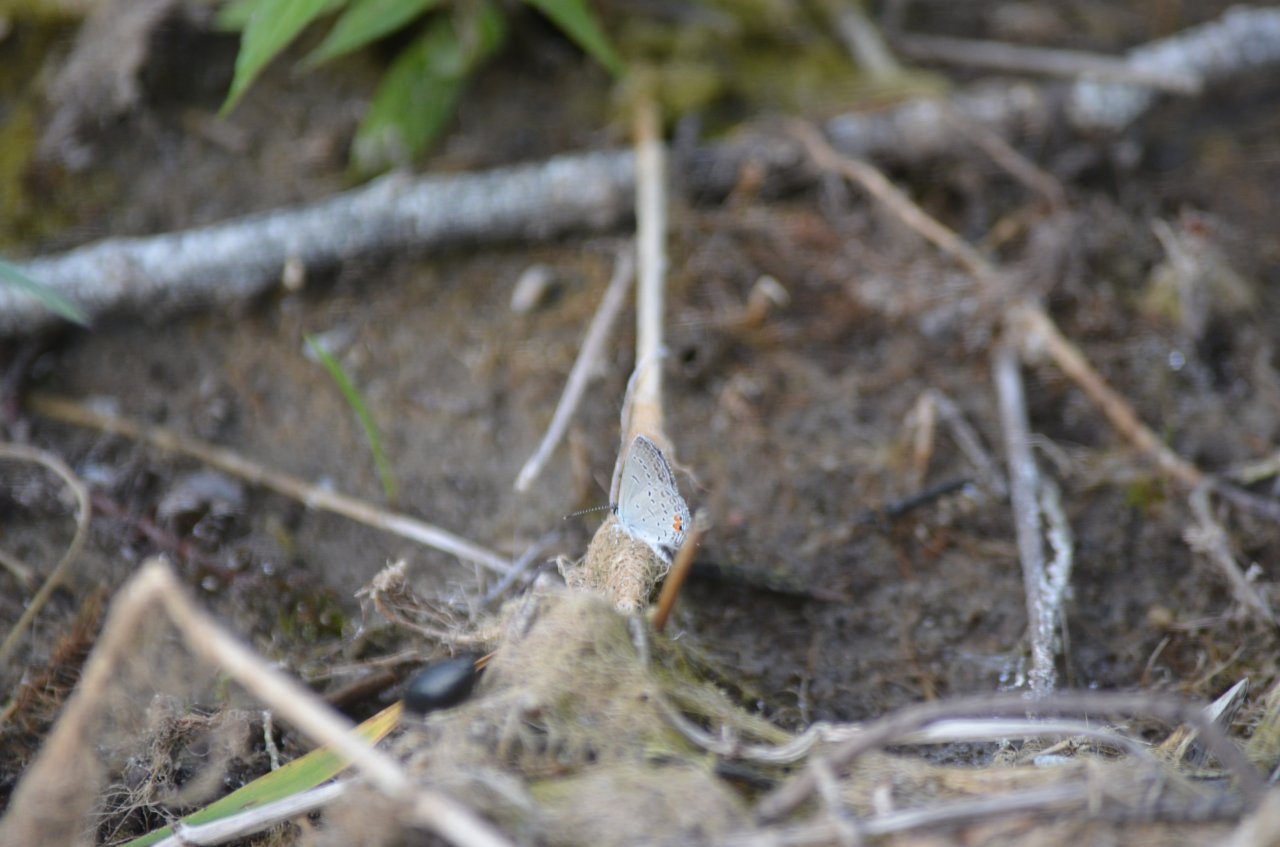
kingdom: Animalia
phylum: Arthropoda
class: Insecta
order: Lepidoptera
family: Lycaenidae
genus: Elkalyce
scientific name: Elkalyce comyntas
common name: Eastern Tailed-Blue
